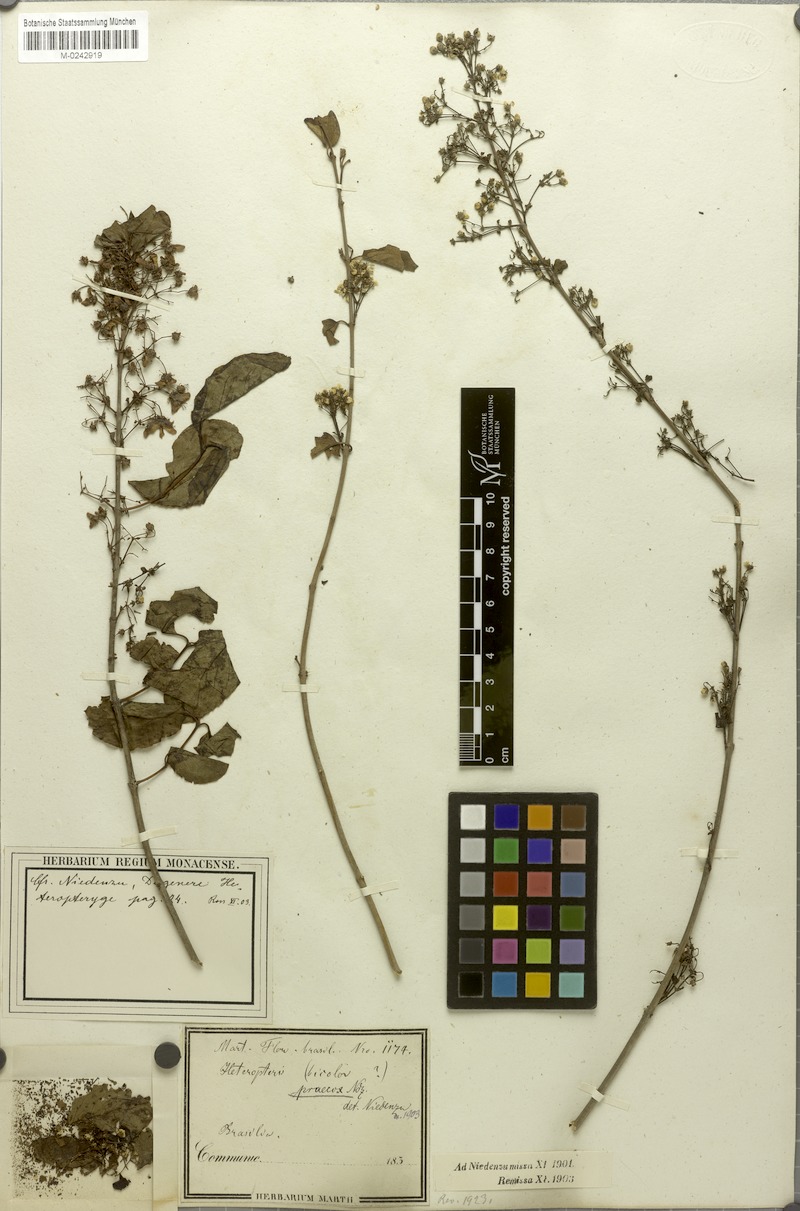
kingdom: Plantae
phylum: Tracheophyta
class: Magnoliopsida
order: Malpighiales
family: Malpighiaceae
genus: Heteropterys
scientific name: Heteropterys dumetorum
